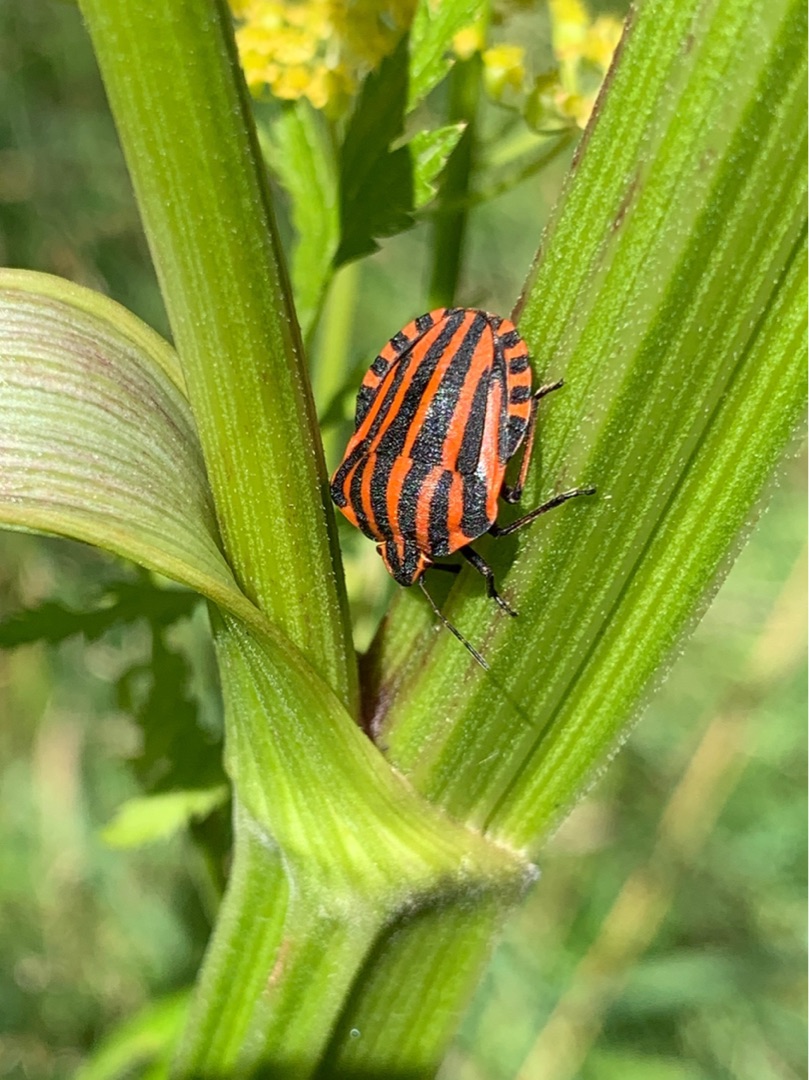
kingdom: Animalia
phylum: Arthropoda
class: Insecta
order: Hemiptera
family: Pentatomidae
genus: Graphosoma
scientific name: Graphosoma italicum
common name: Stribetæge
